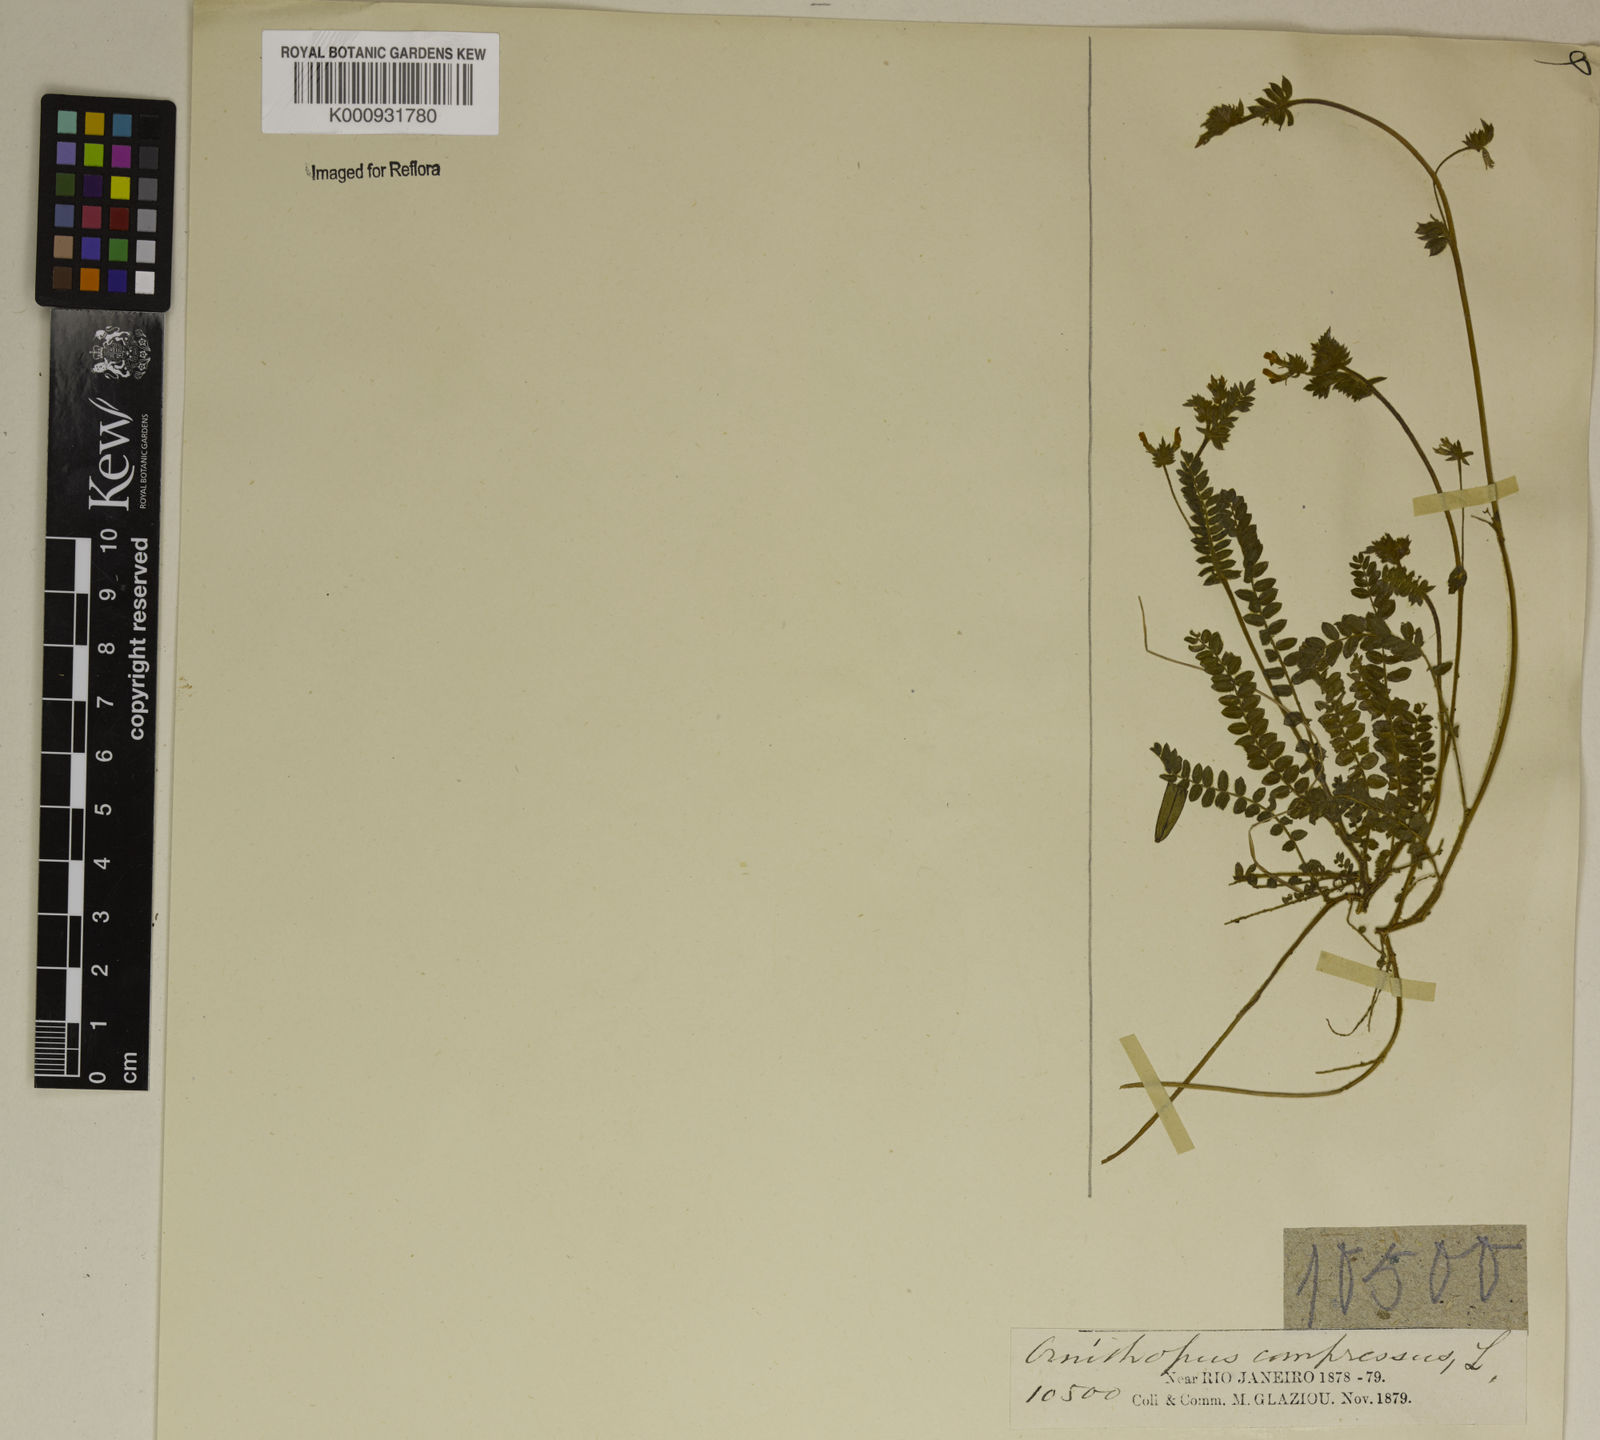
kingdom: Plantae
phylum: Tracheophyta
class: Magnoliopsida
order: Fabales
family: Fabaceae
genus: Ornithopus
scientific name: Ornithopus compressus
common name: Yellow serradella
